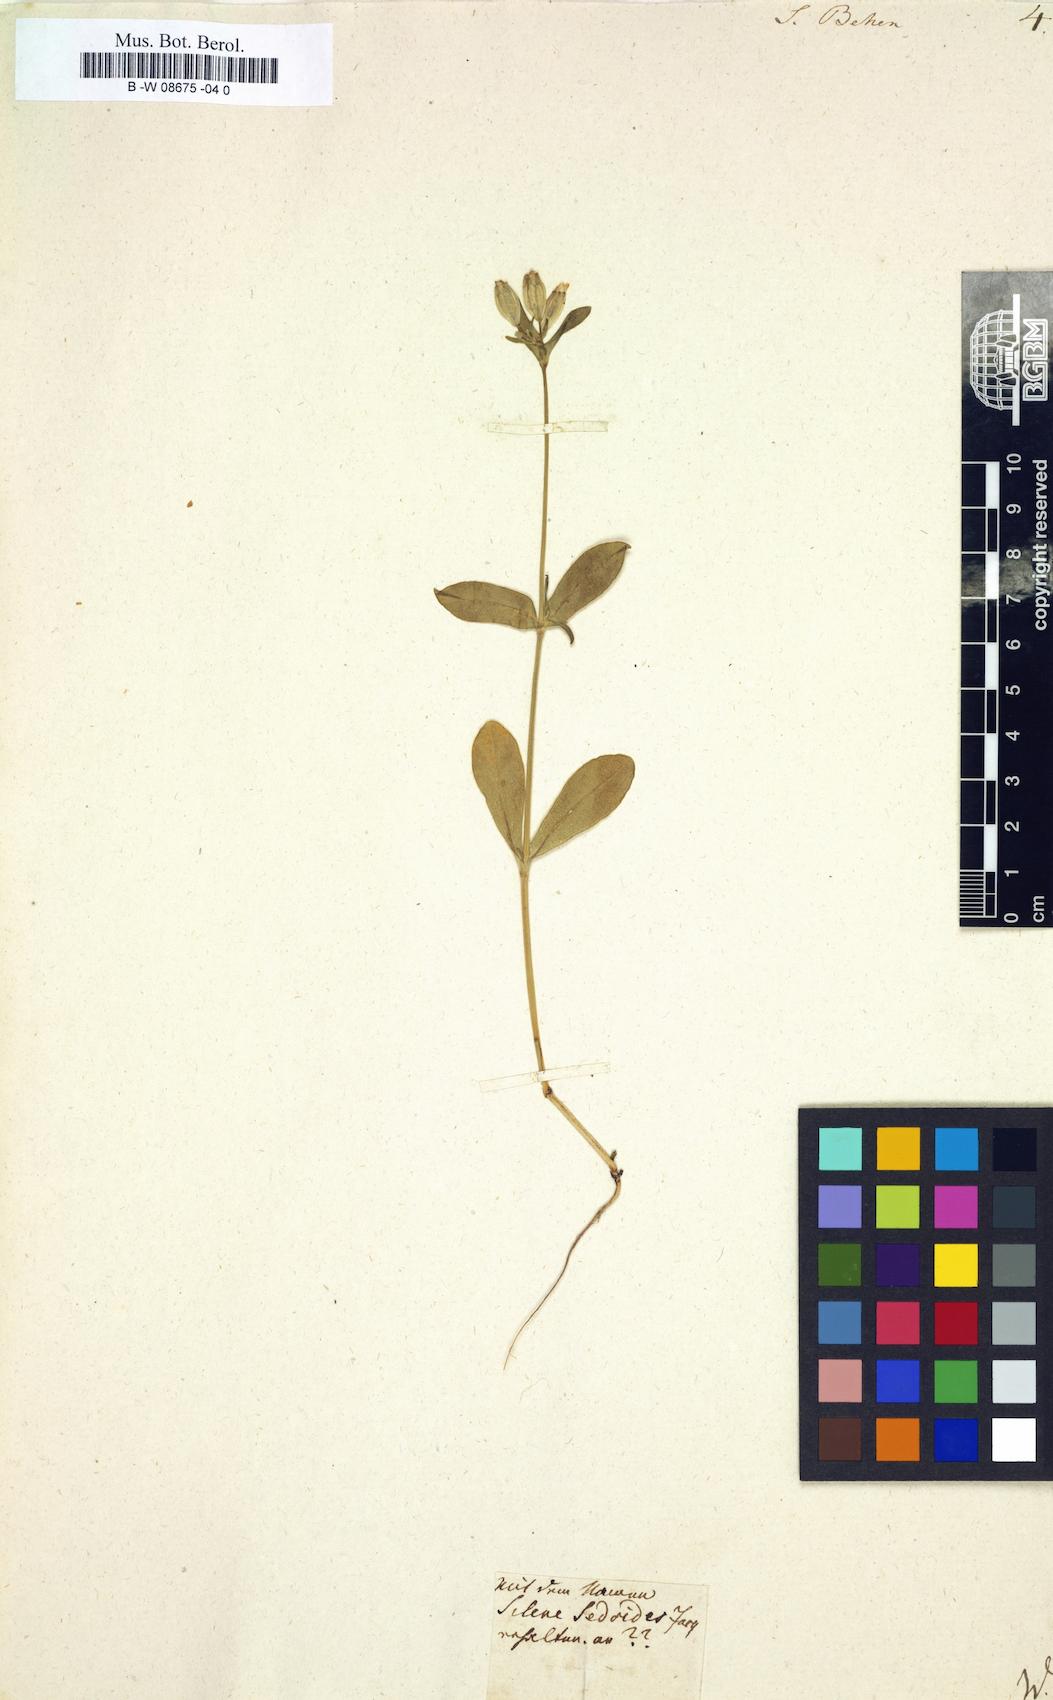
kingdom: Plantae
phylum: Tracheophyta
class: Magnoliopsida
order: Caryophyllales
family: Caryophyllaceae
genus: Silene
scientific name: Silene behen
